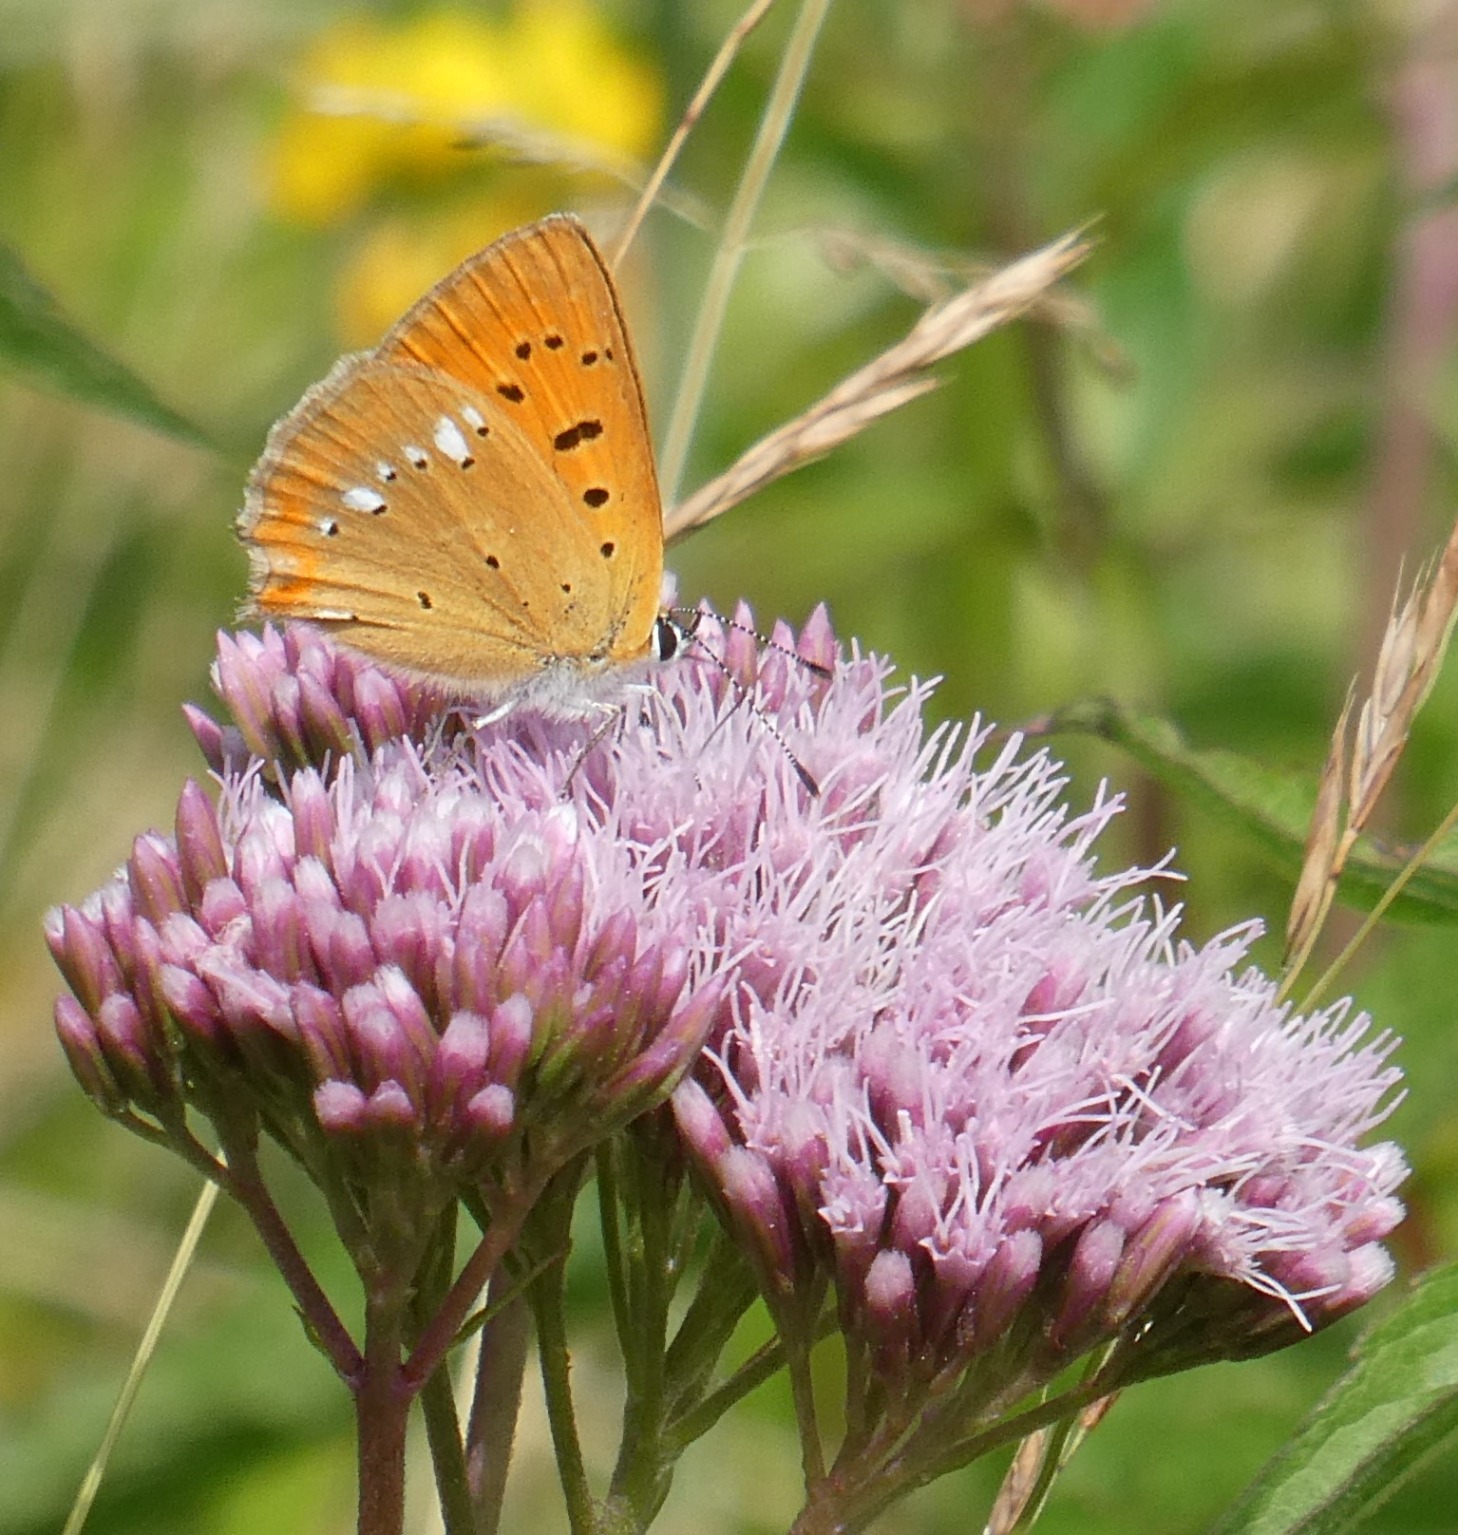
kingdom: Animalia
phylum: Arthropoda
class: Insecta
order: Lepidoptera
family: Lycaenidae
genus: Lycaena
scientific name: Lycaena virgaureae
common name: Dukatsommerfugl
